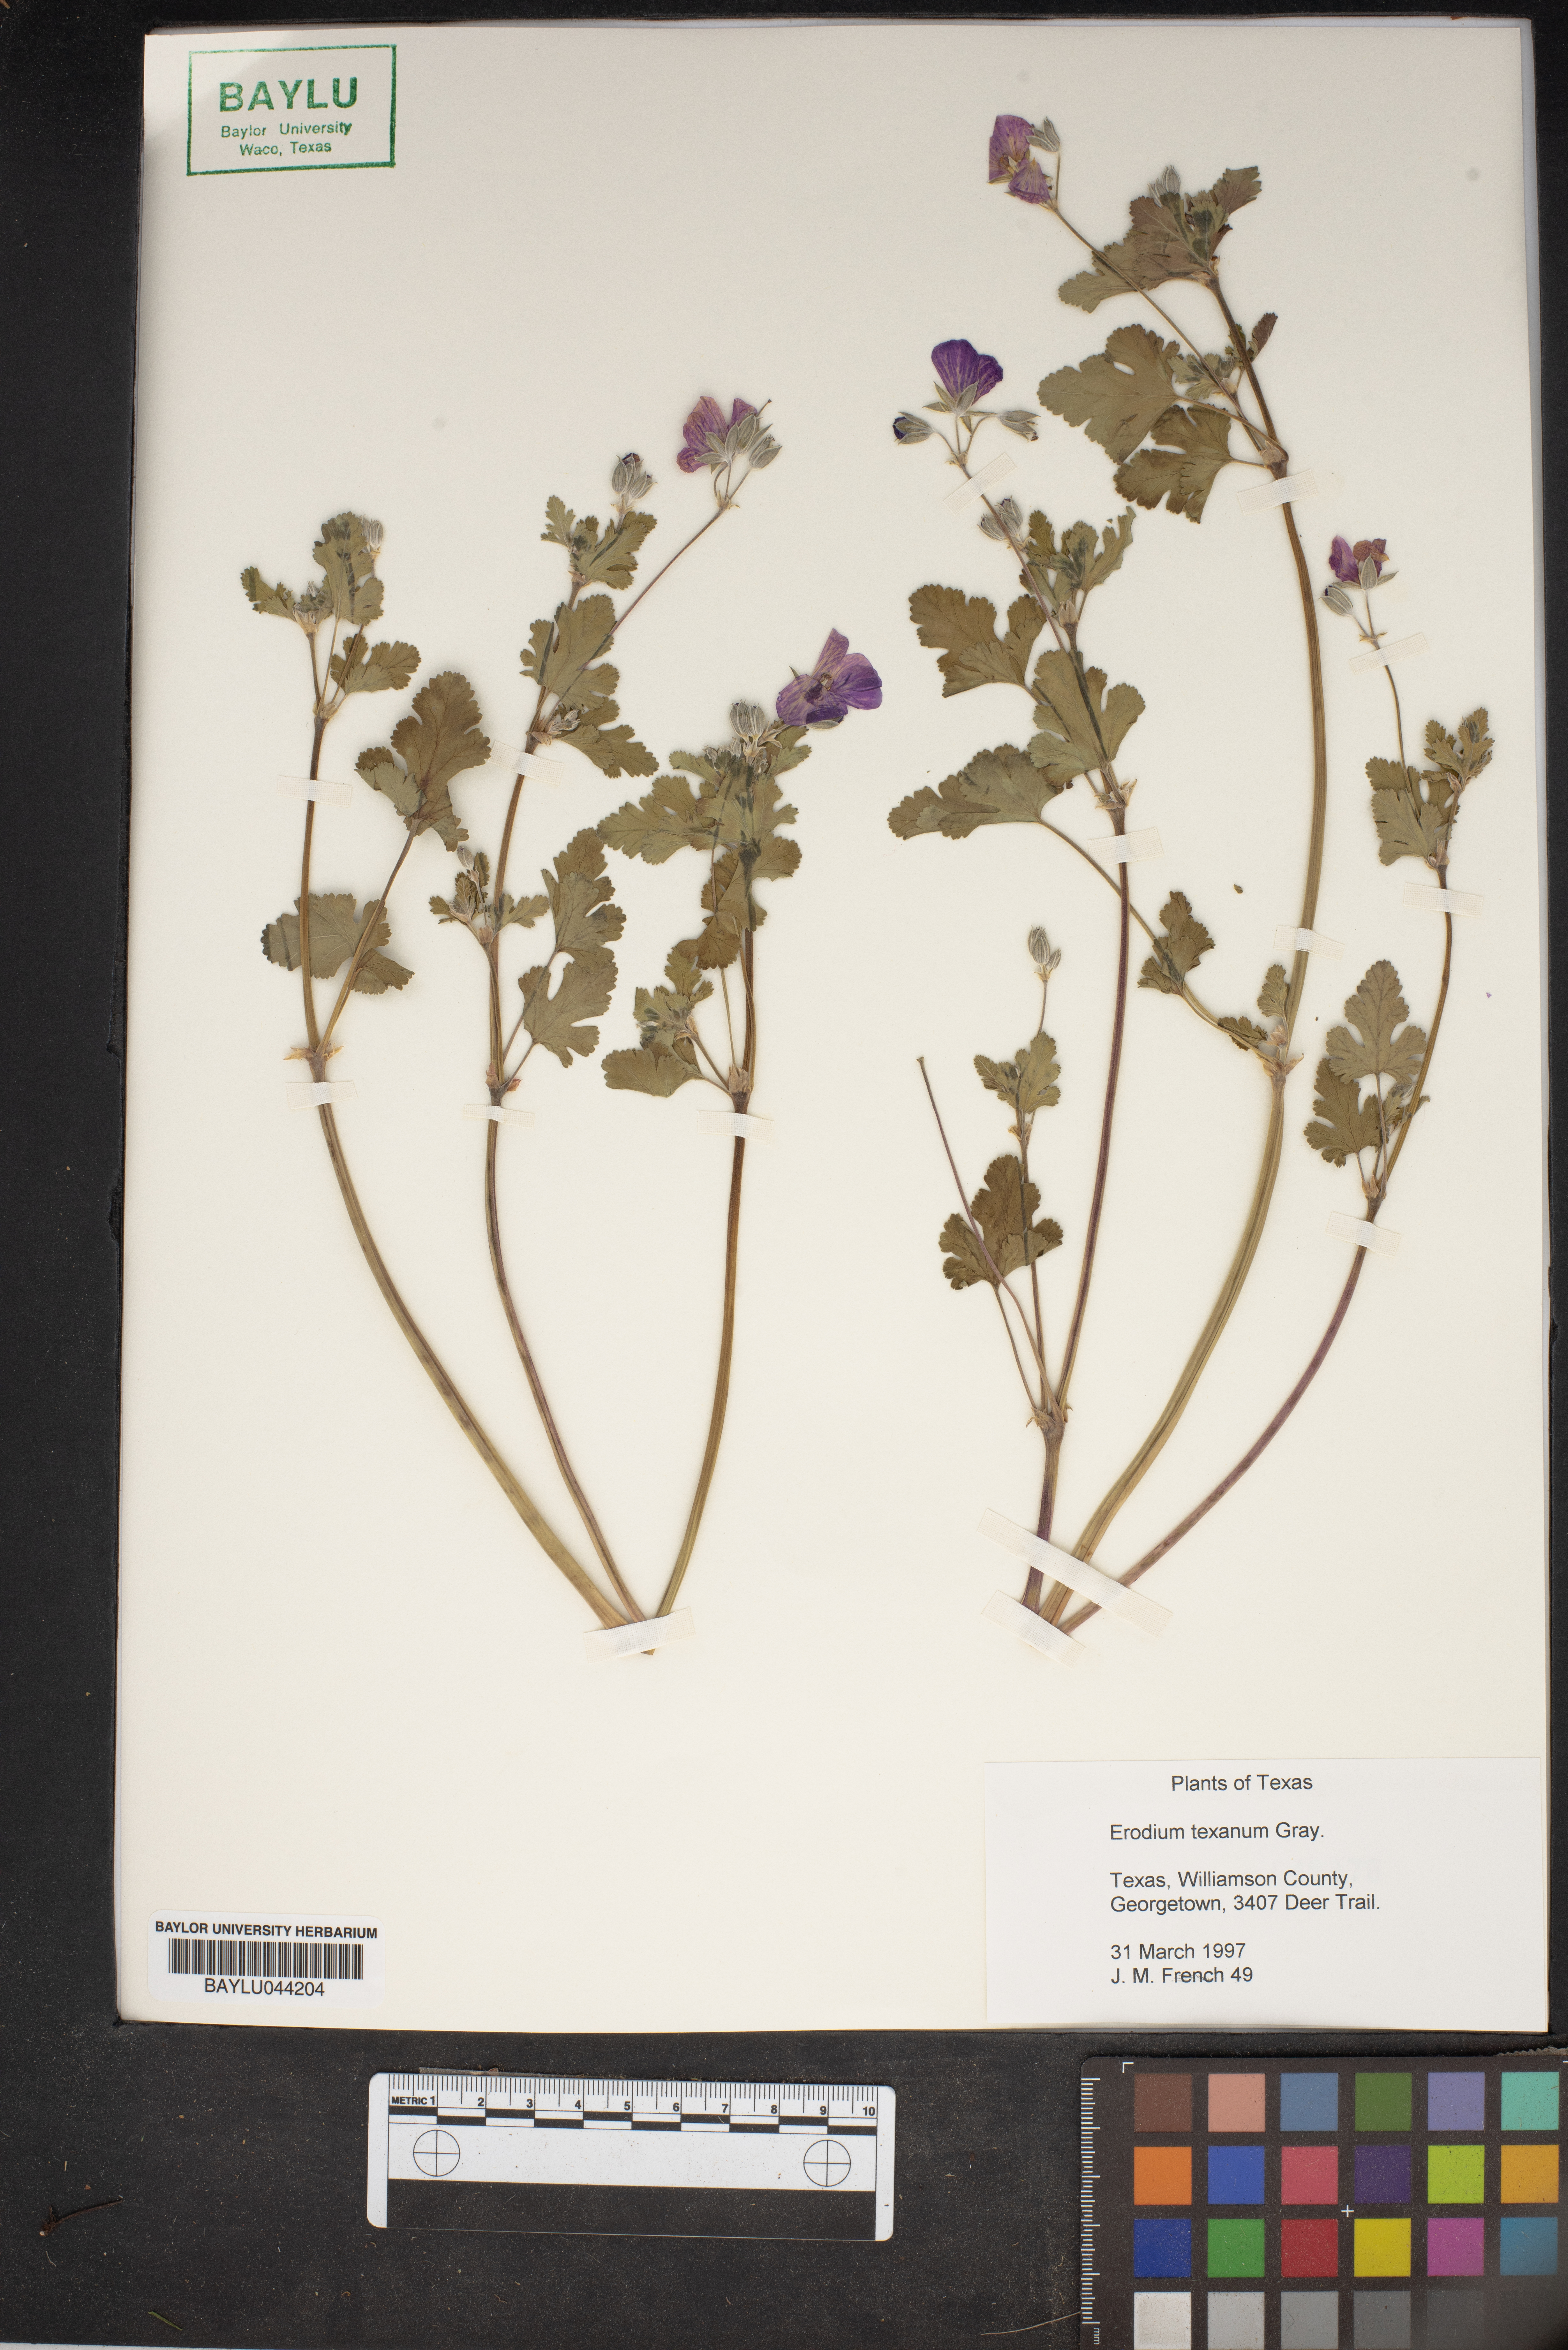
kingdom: Plantae
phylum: Tracheophyta
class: Magnoliopsida
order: Geraniales
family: Geraniaceae
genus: Erodium
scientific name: Erodium texanum
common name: Texas stork's-bill
